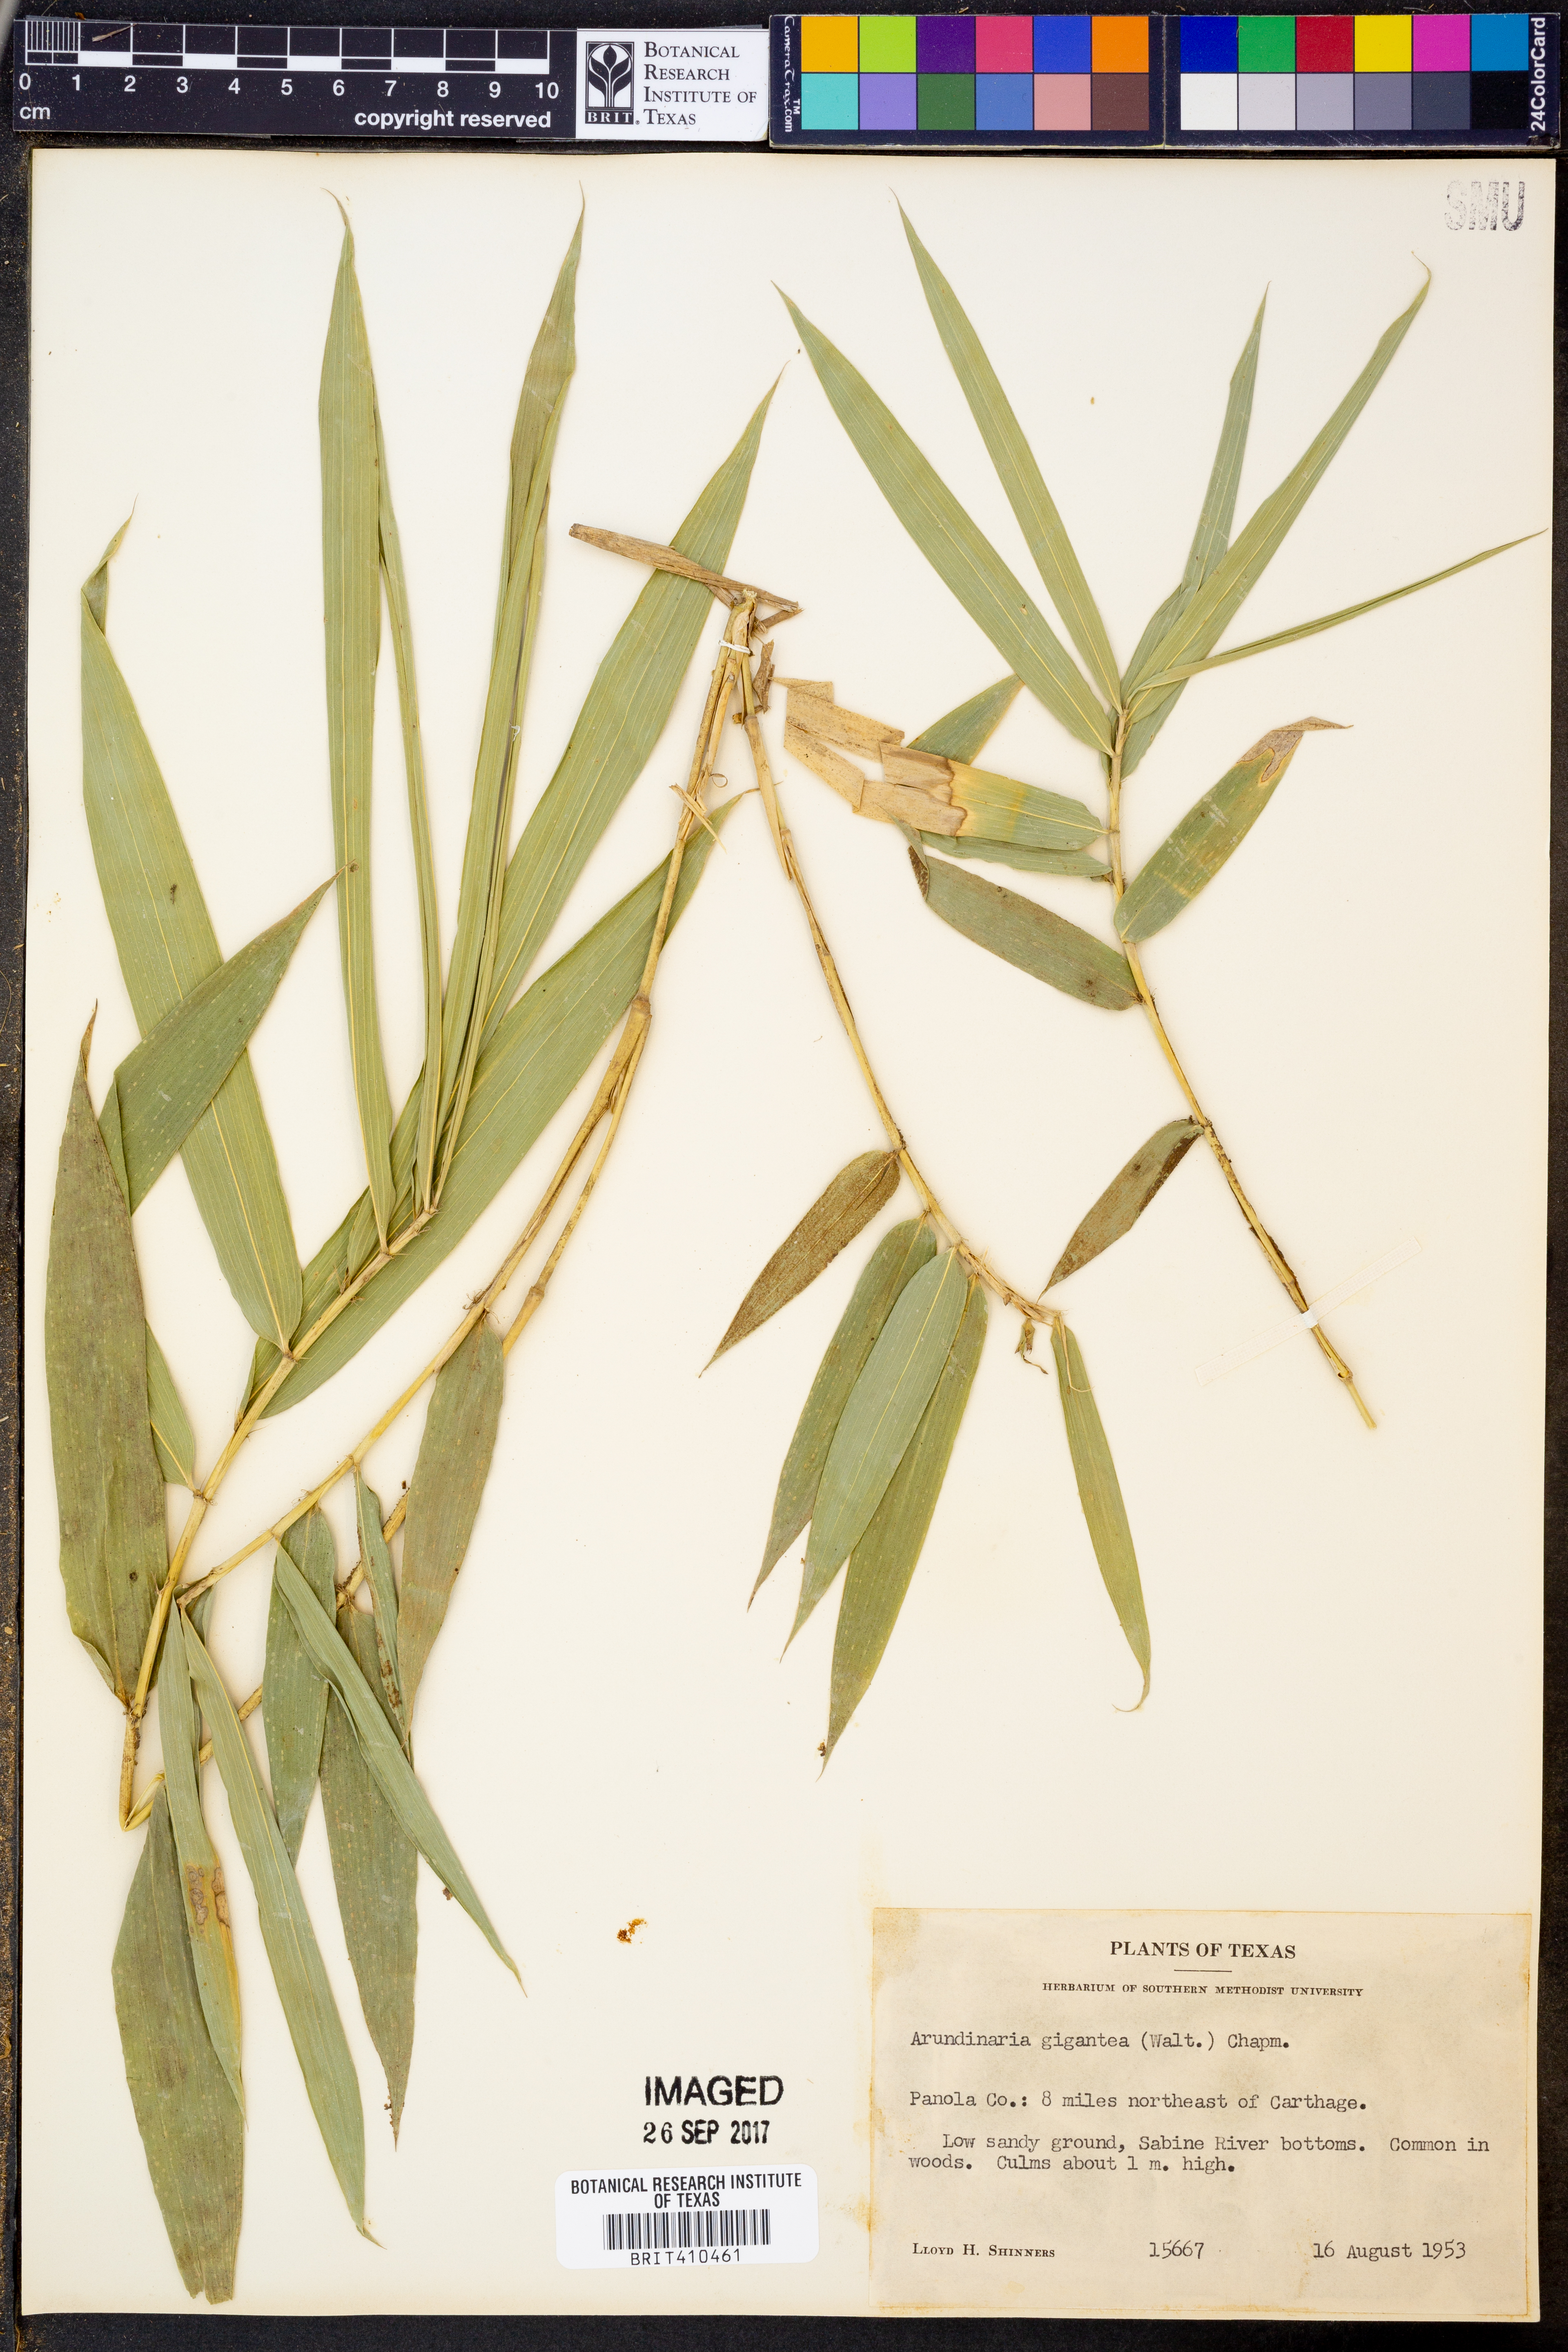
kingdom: Plantae
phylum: Tracheophyta
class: Liliopsida
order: Poales
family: Poaceae
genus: Arundinaria
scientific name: Arundinaria gigantea
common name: Giant cane
